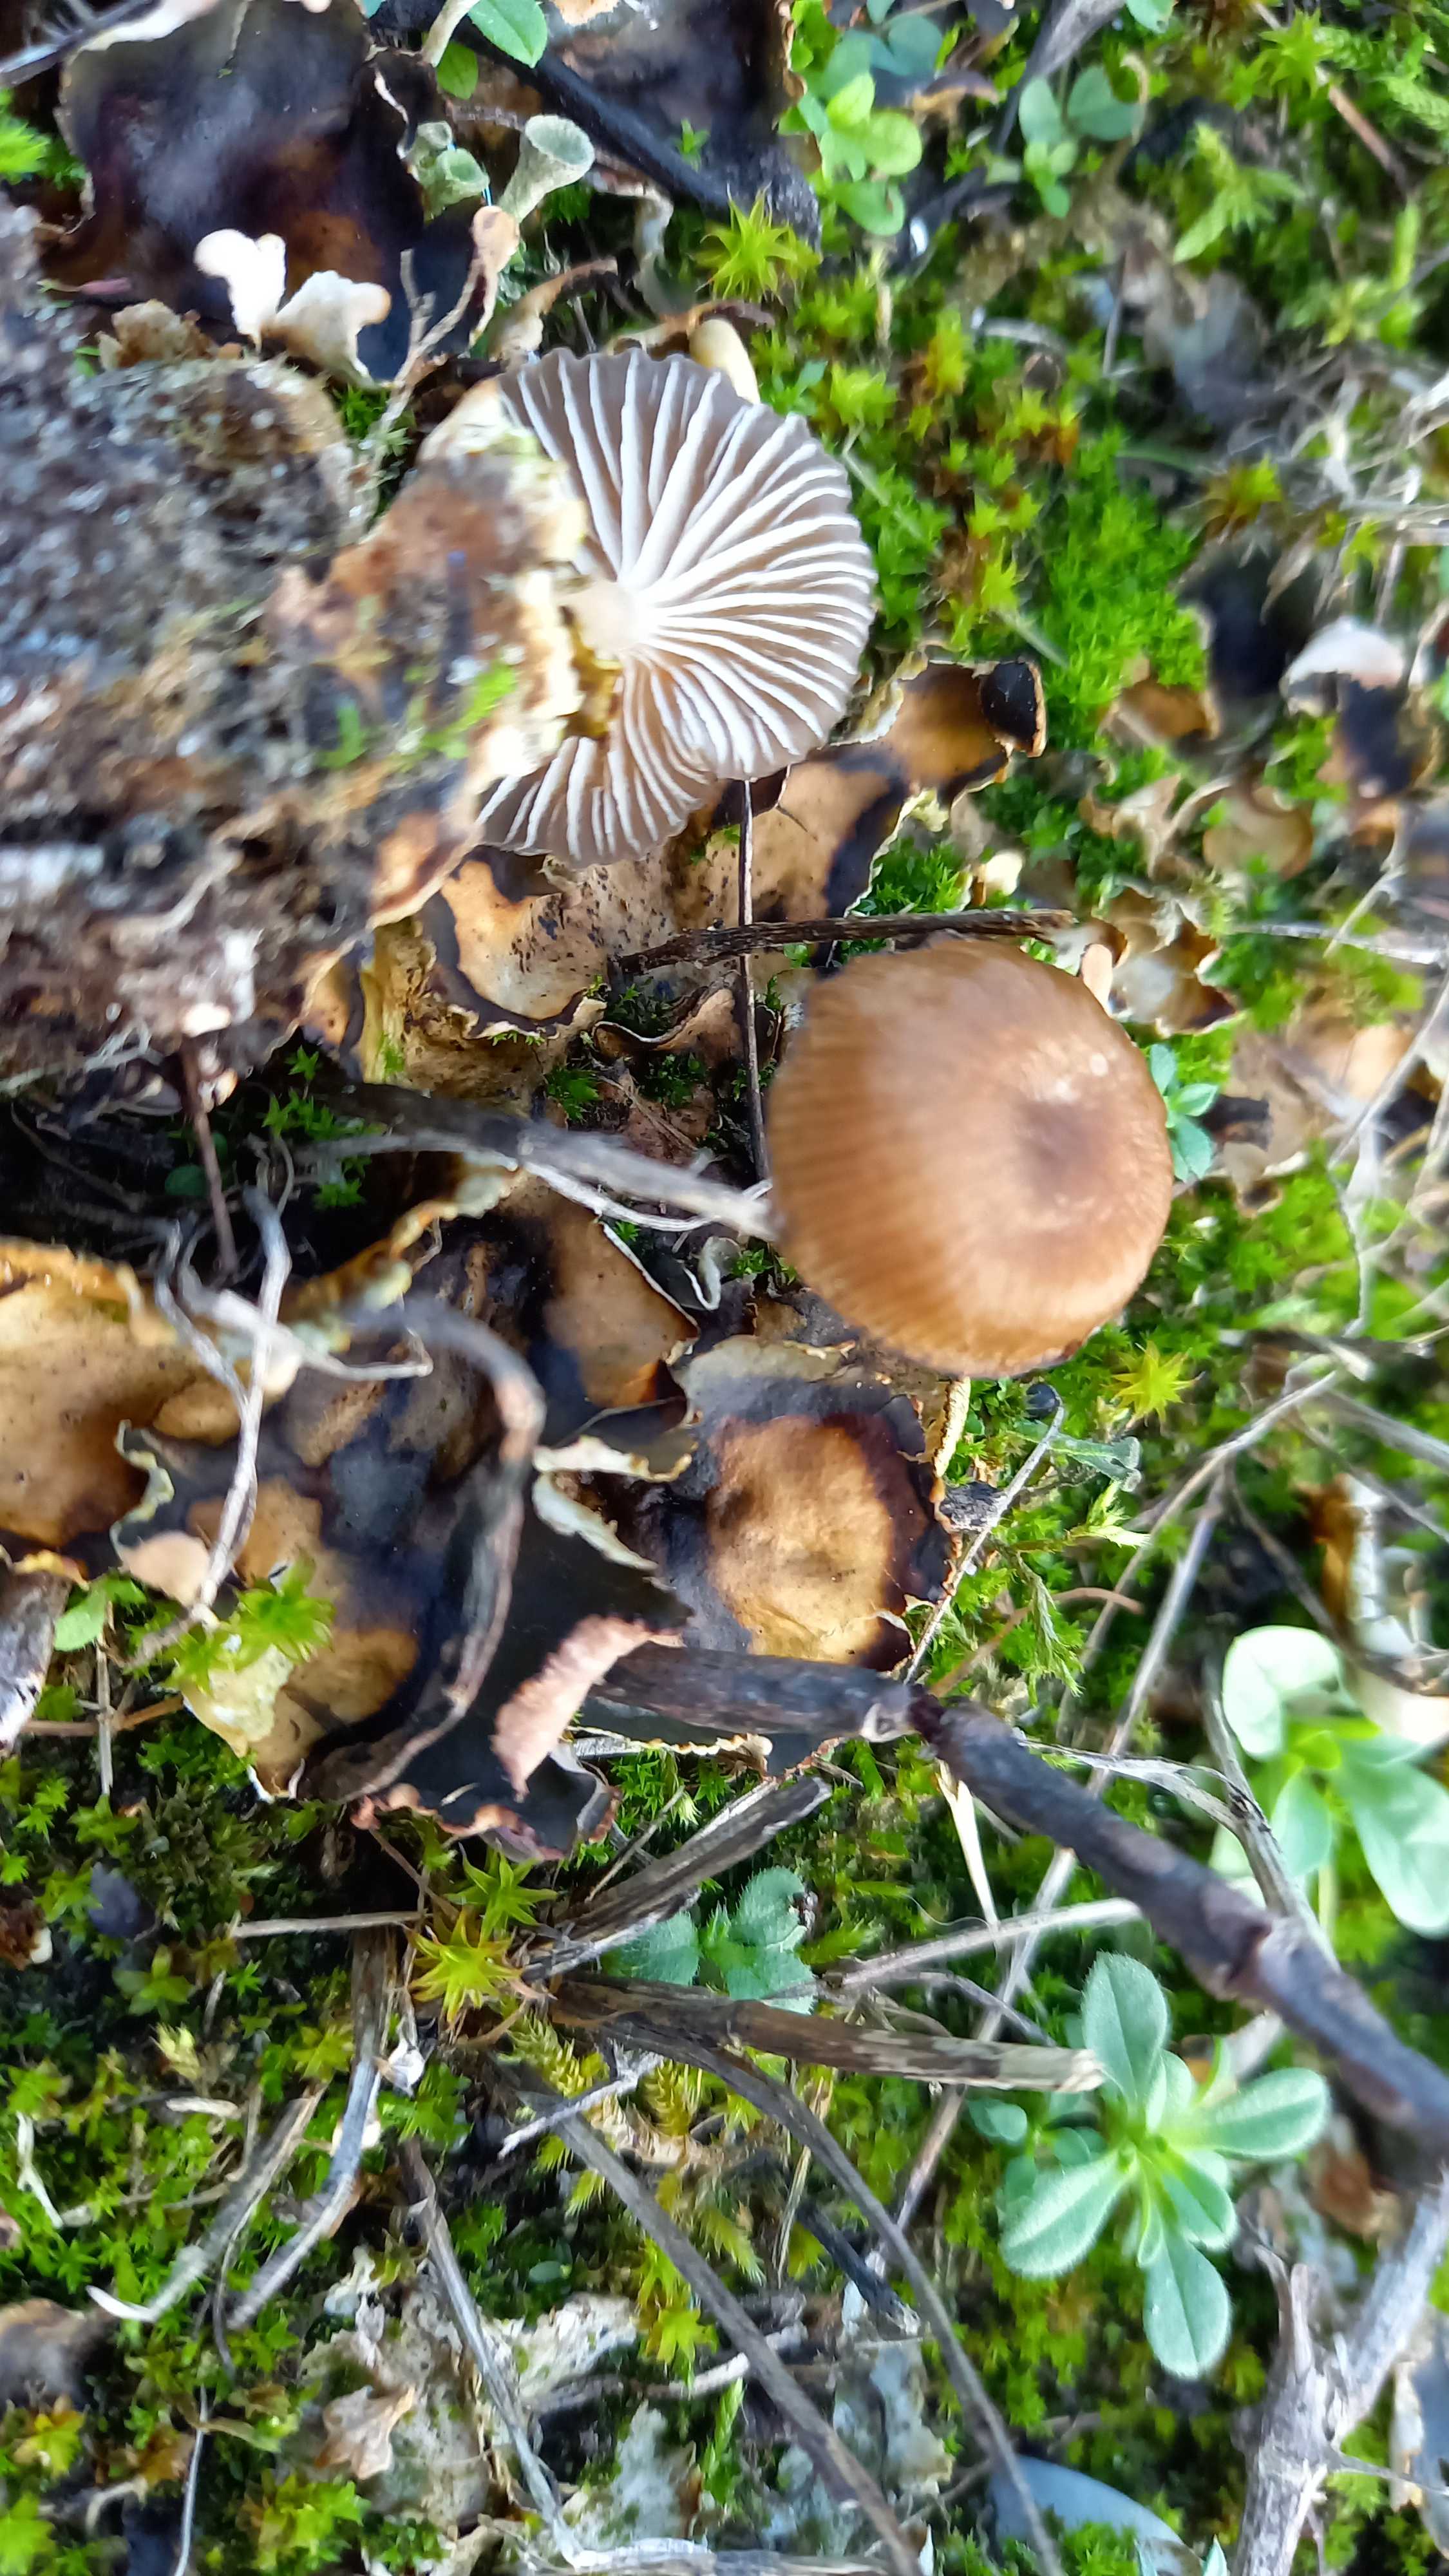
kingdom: Fungi
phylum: Basidiomycota
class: Agaricomycetes
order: Agaricales
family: Tricholomataceae
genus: Gamundia
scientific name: Gamundia xerophila
